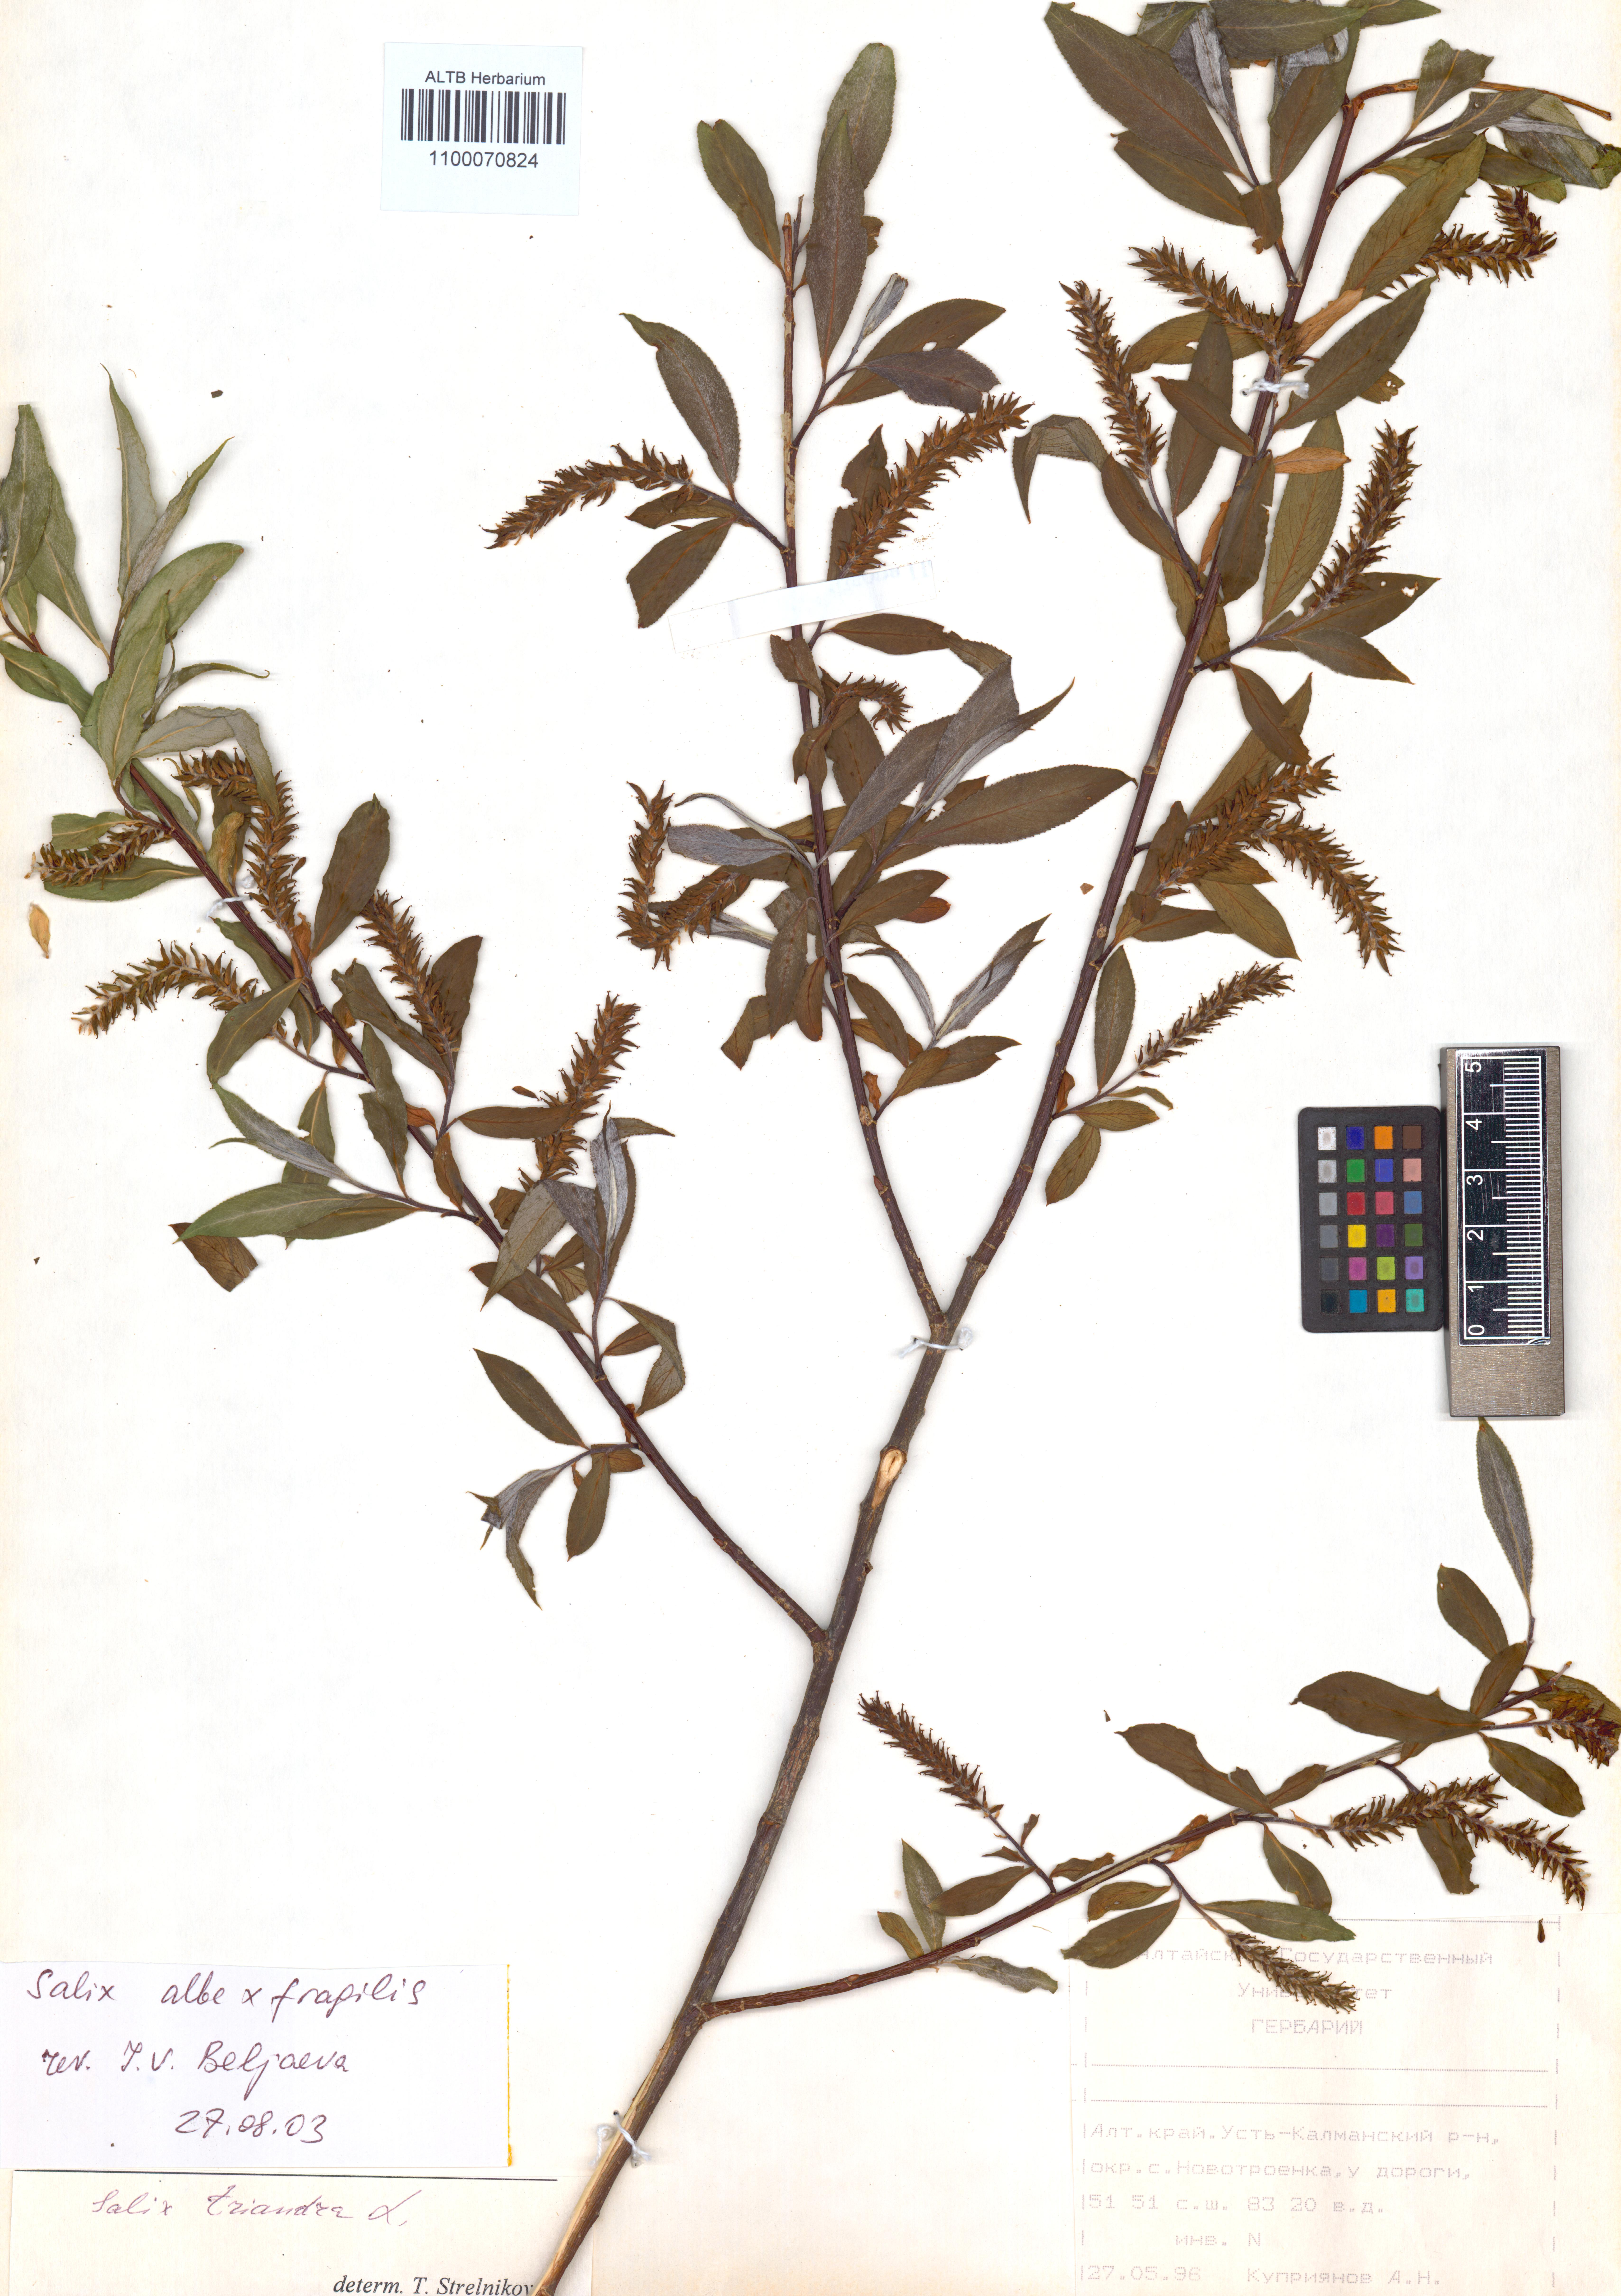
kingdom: Plantae
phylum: Tracheophyta
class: Magnoliopsida
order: Malpighiales
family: Salicaceae
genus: Salix
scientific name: Salix alba
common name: White willow
